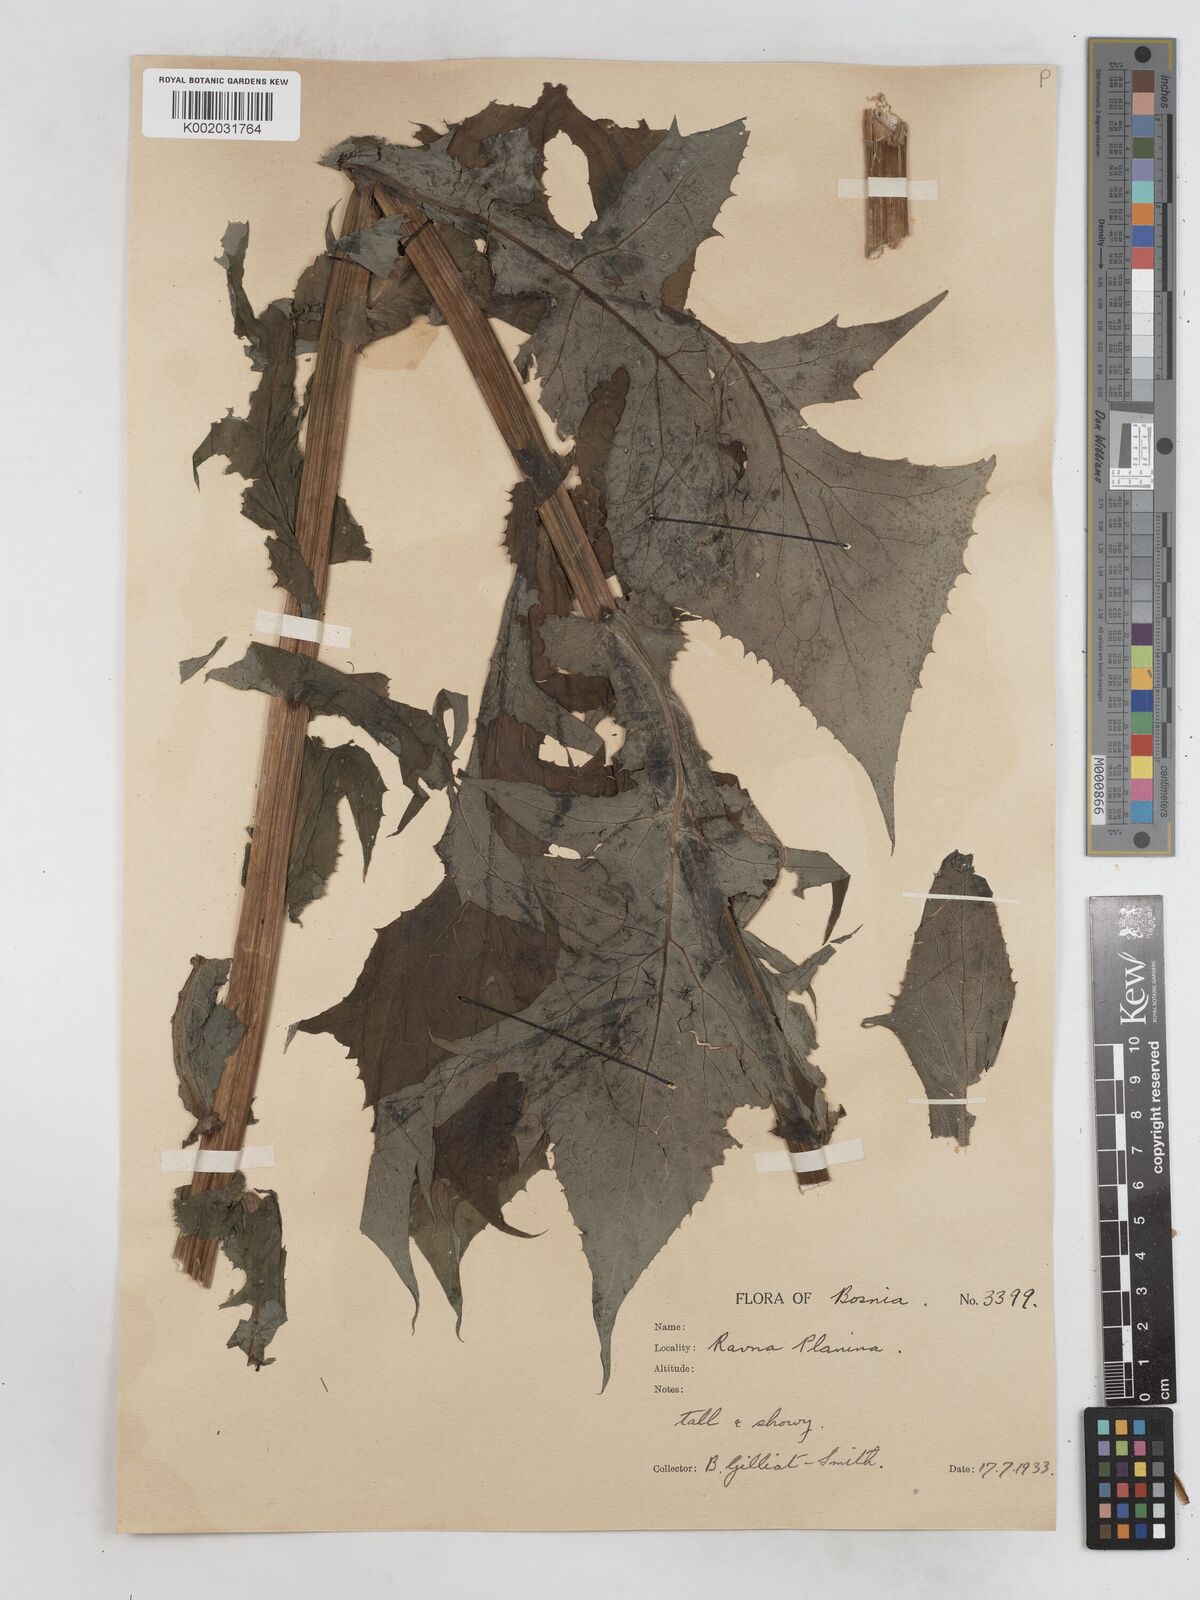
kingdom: Plantae
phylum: Tracheophyta
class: Magnoliopsida
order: Asterales
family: Asteraceae
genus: Cicerbita
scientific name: Cicerbita alpina
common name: Alpine blue-sow-thistle
